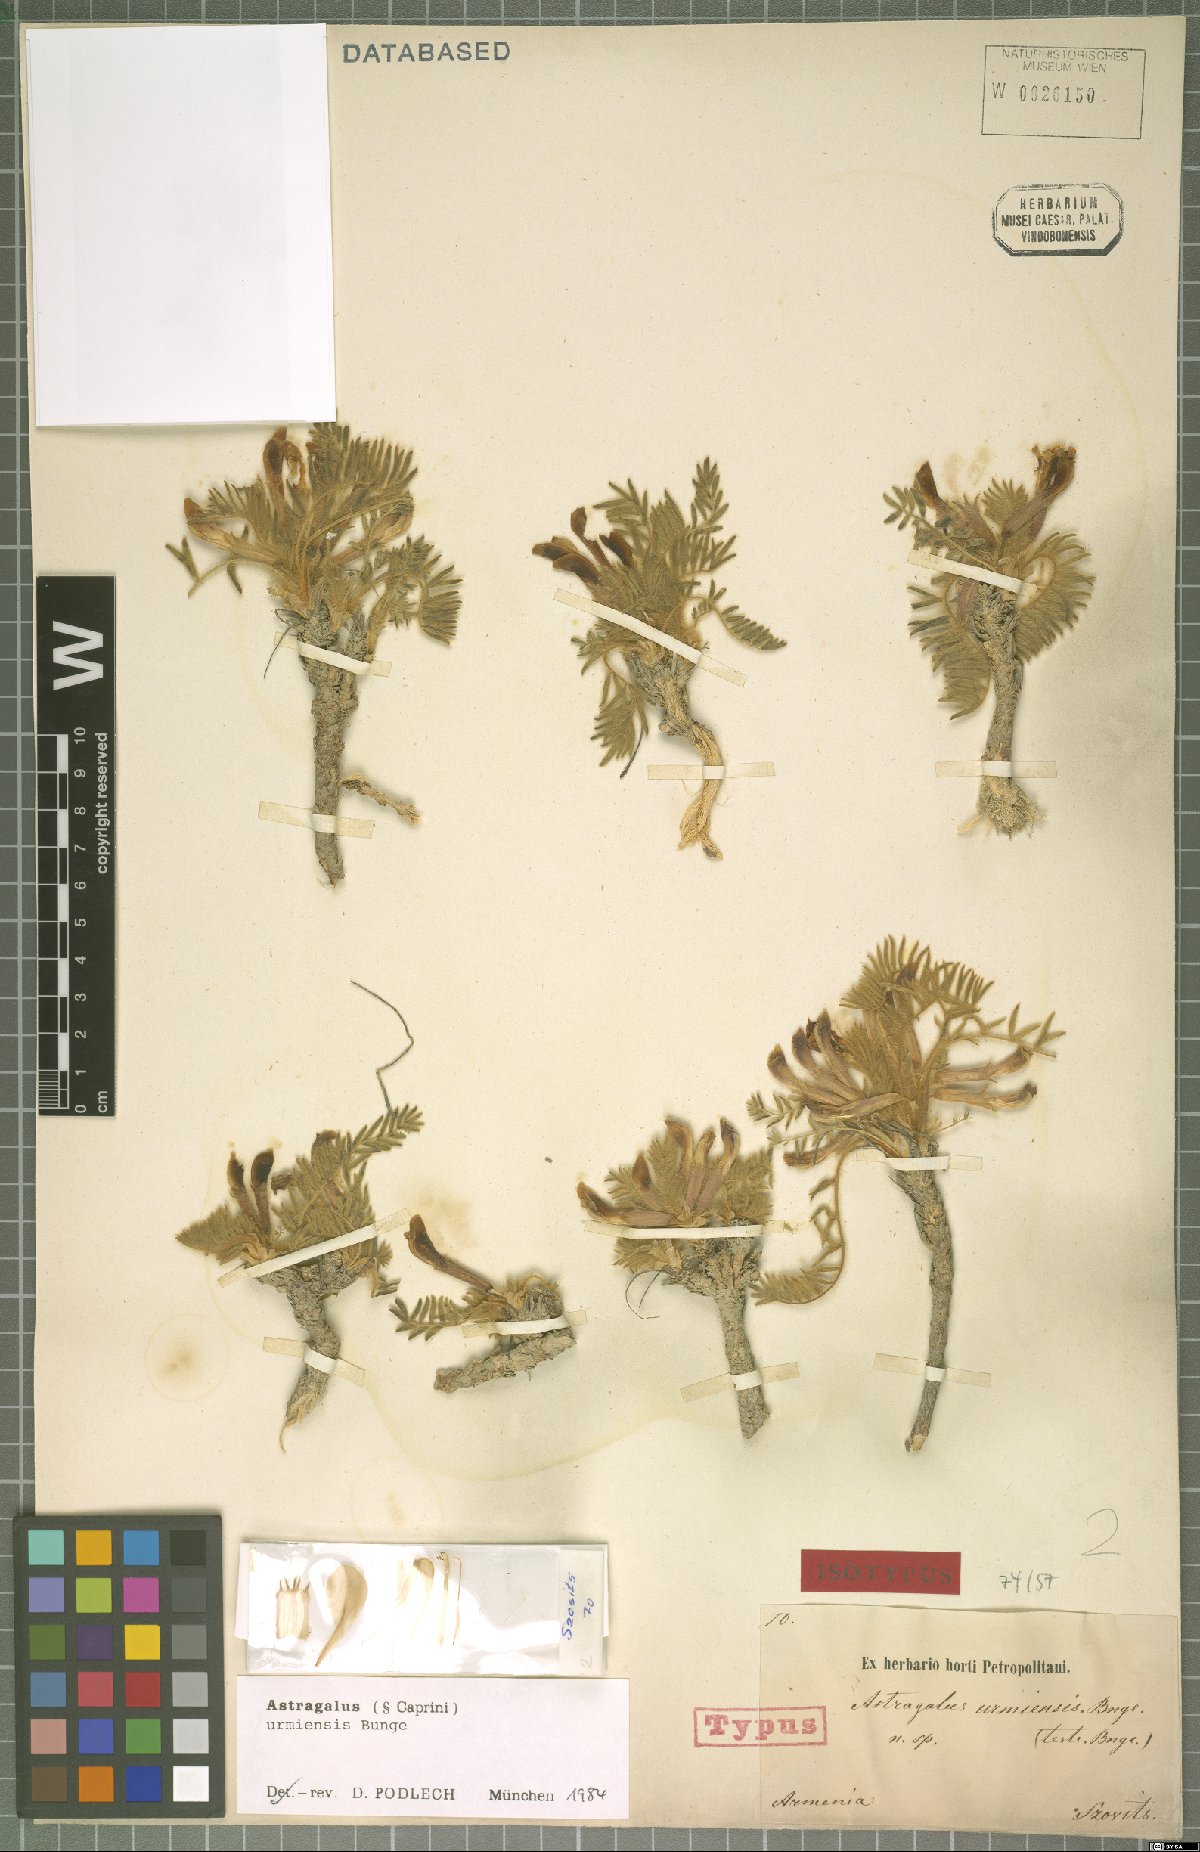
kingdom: Plantae
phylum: Tracheophyta
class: Magnoliopsida
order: Fabales
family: Fabaceae
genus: Astragalus
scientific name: Astragalus urmiensis
